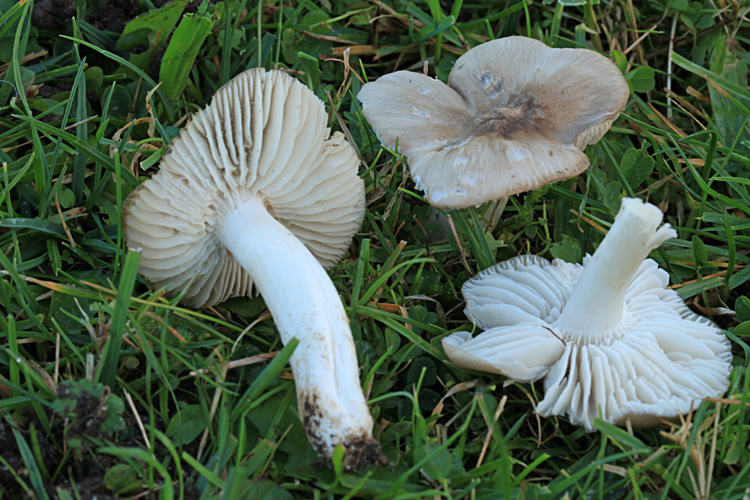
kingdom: Fungi
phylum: Basidiomycota
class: Agaricomycetes
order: Agaricales
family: Hygrophoraceae
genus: Cuphophyllus
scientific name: Cuphophyllus fornicatus
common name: gråbrun vokshat
